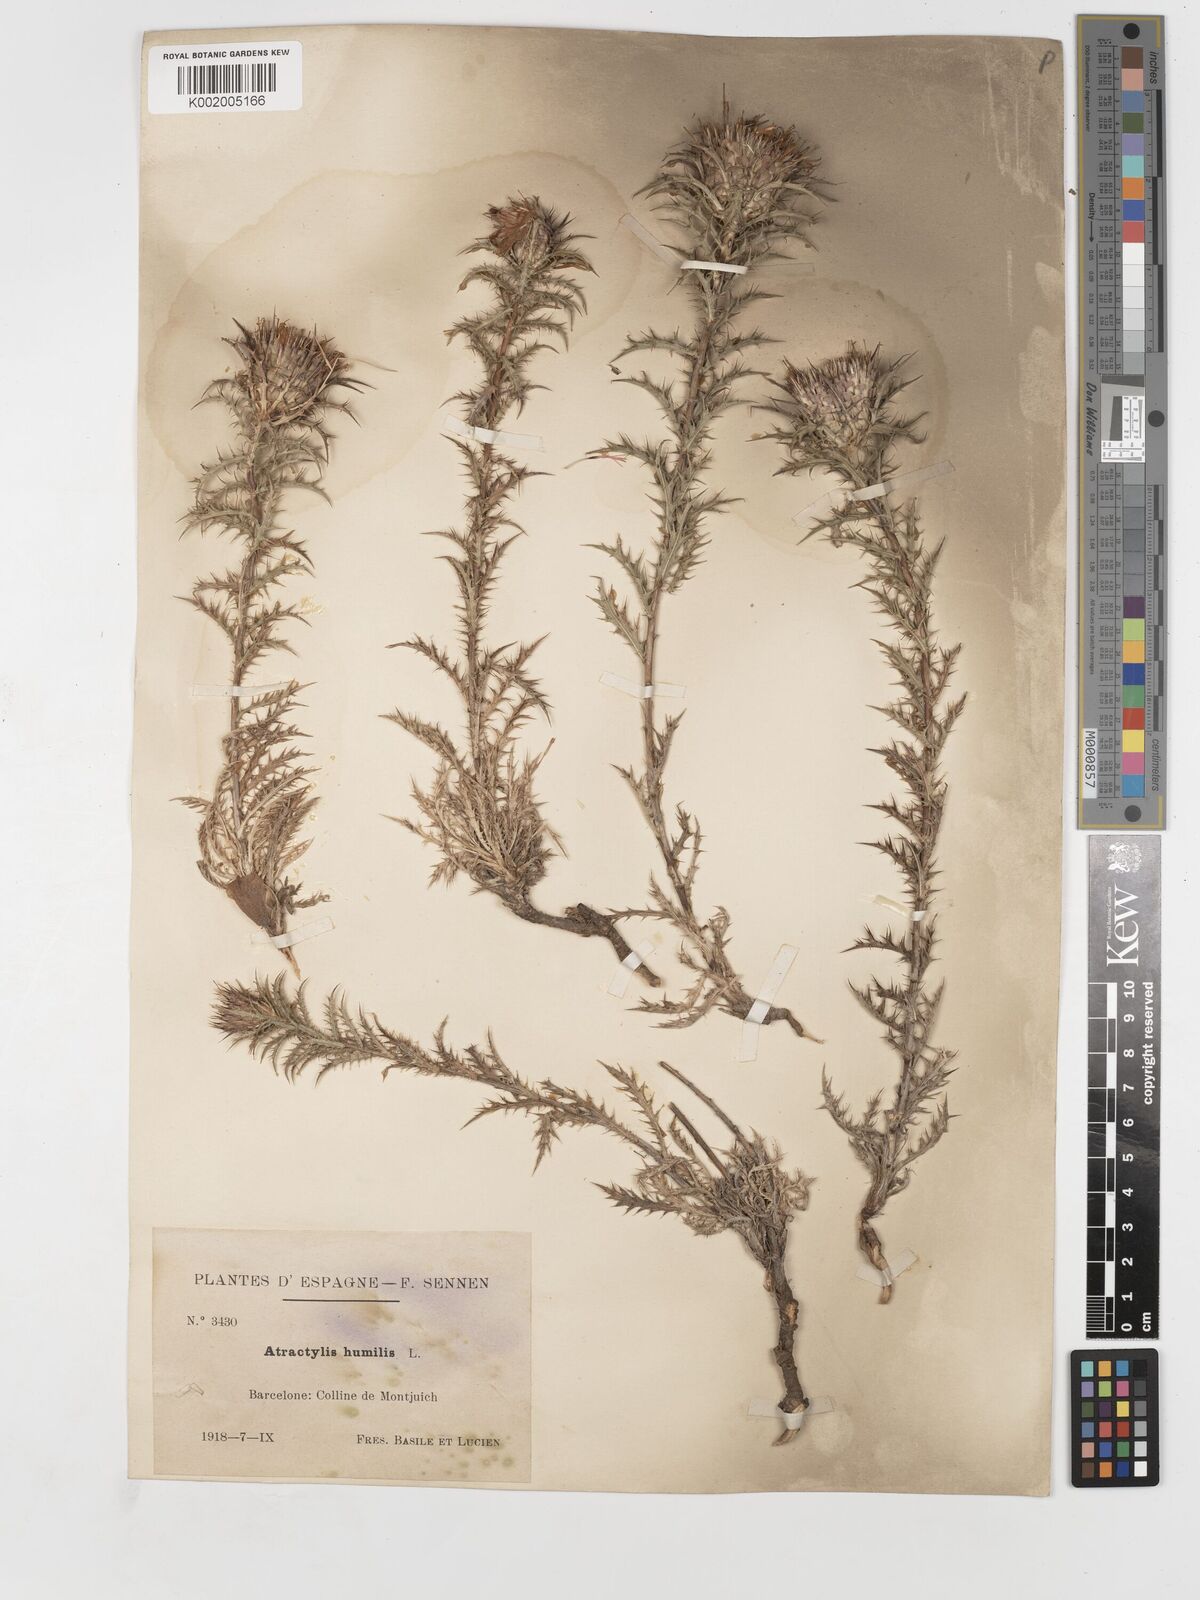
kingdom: Plantae
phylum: Tracheophyta
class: Magnoliopsida
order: Asterales
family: Asteraceae
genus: Atractylis
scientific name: Atractylis humilis
